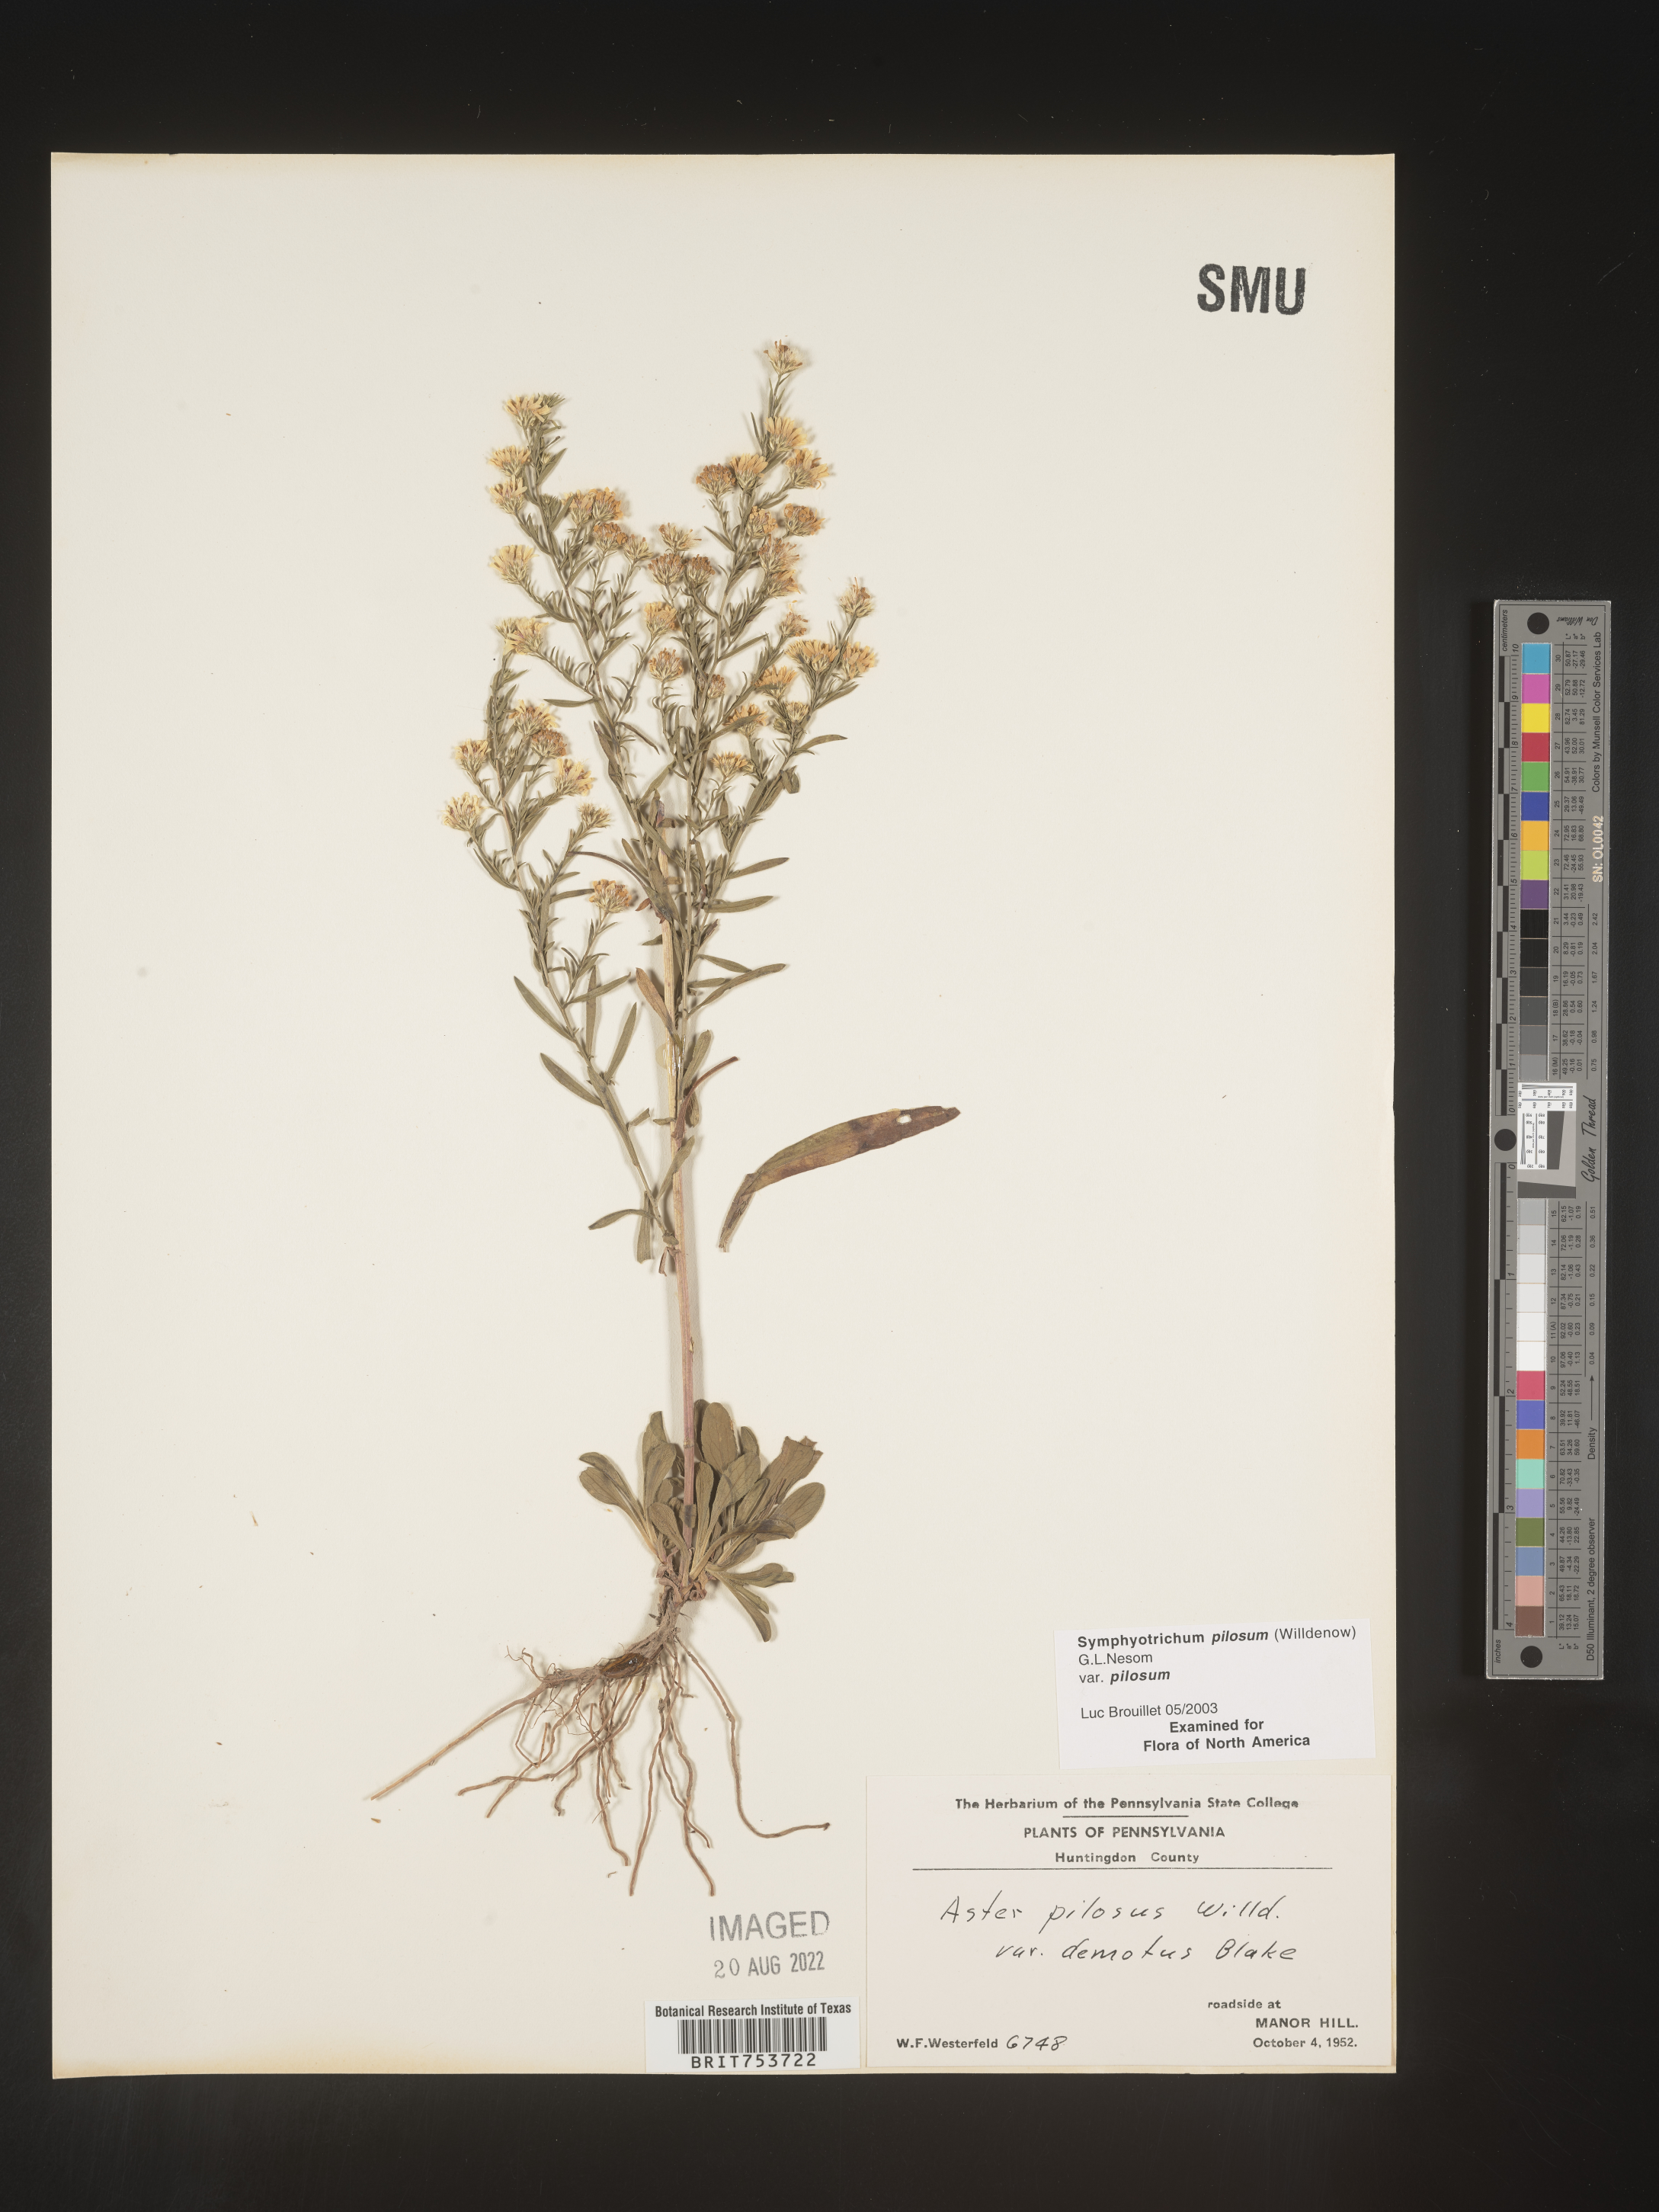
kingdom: Plantae
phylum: Tracheophyta
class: Magnoliopsida
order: Asterales
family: Asteraceae
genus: Symphyotrichum
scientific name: Symphyotrichum pilosum
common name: Awl aster
